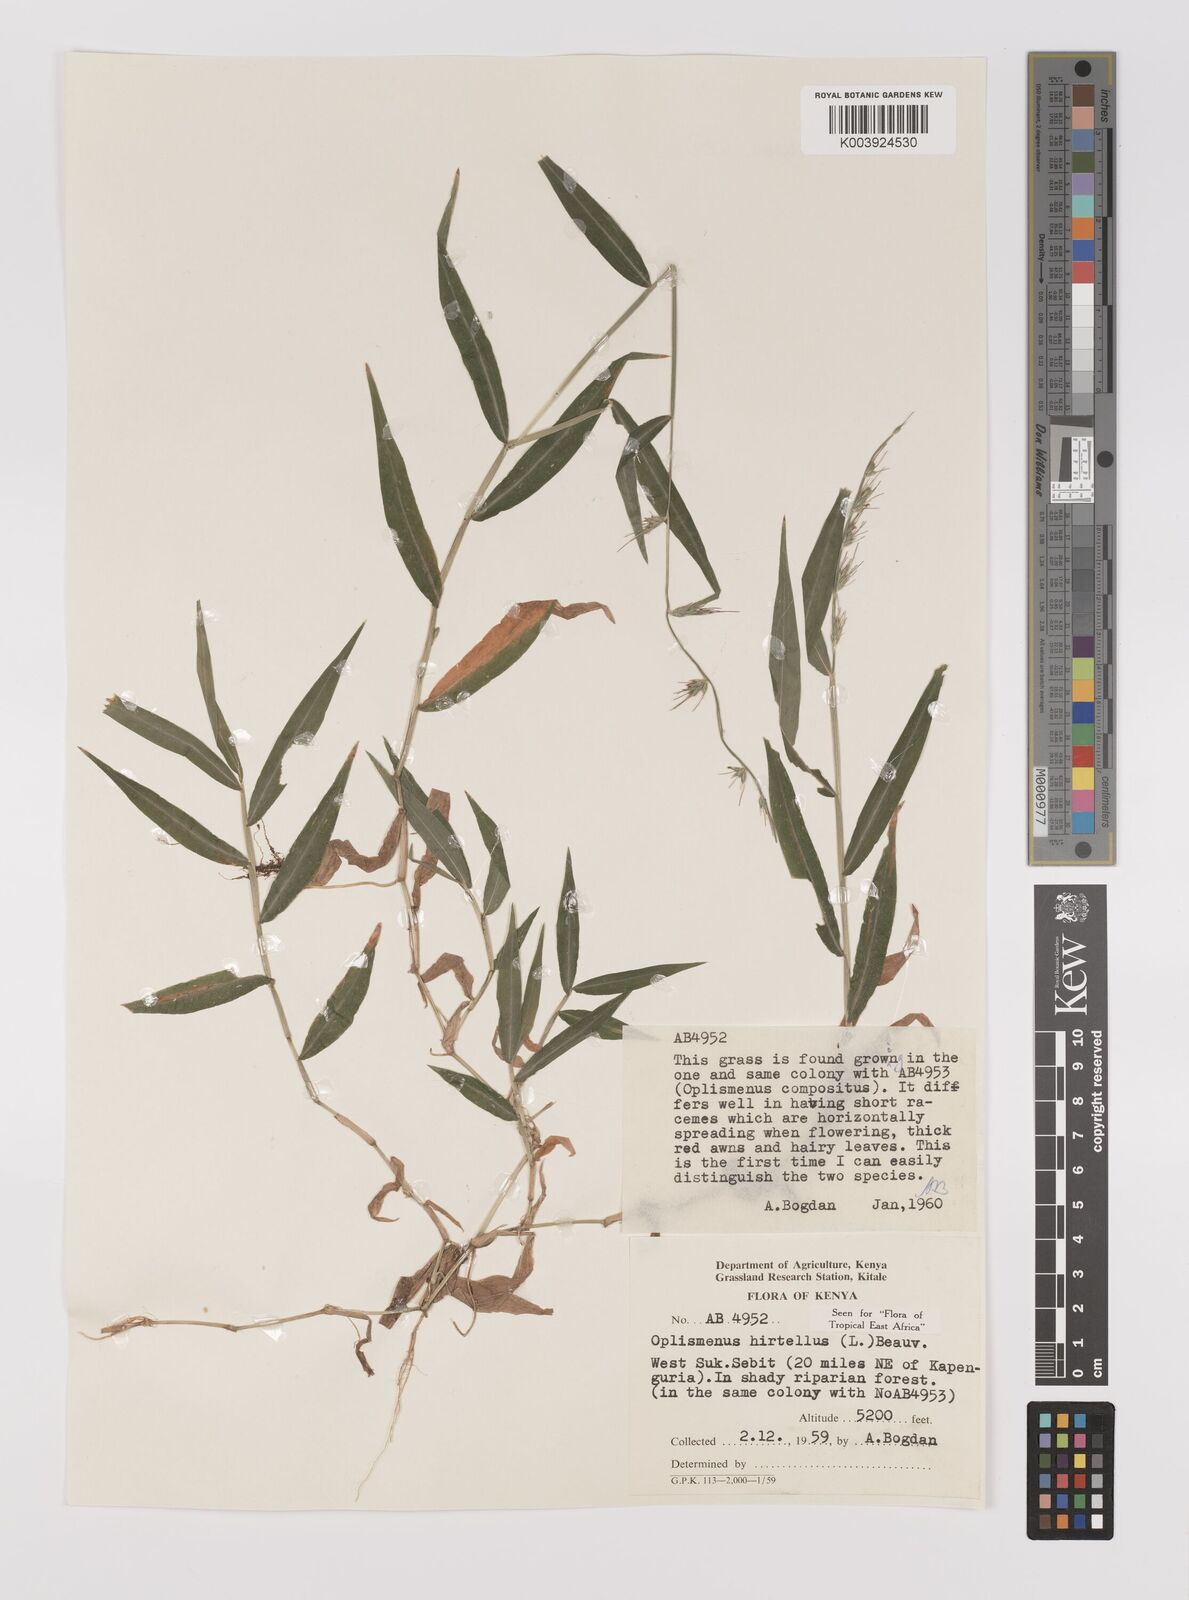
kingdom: Plantae
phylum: Tracheophyta
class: Liliopsida
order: Poales
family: Poaceae
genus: Oplismenus
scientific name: Oplismenus hirtellus
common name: Basketgrass
